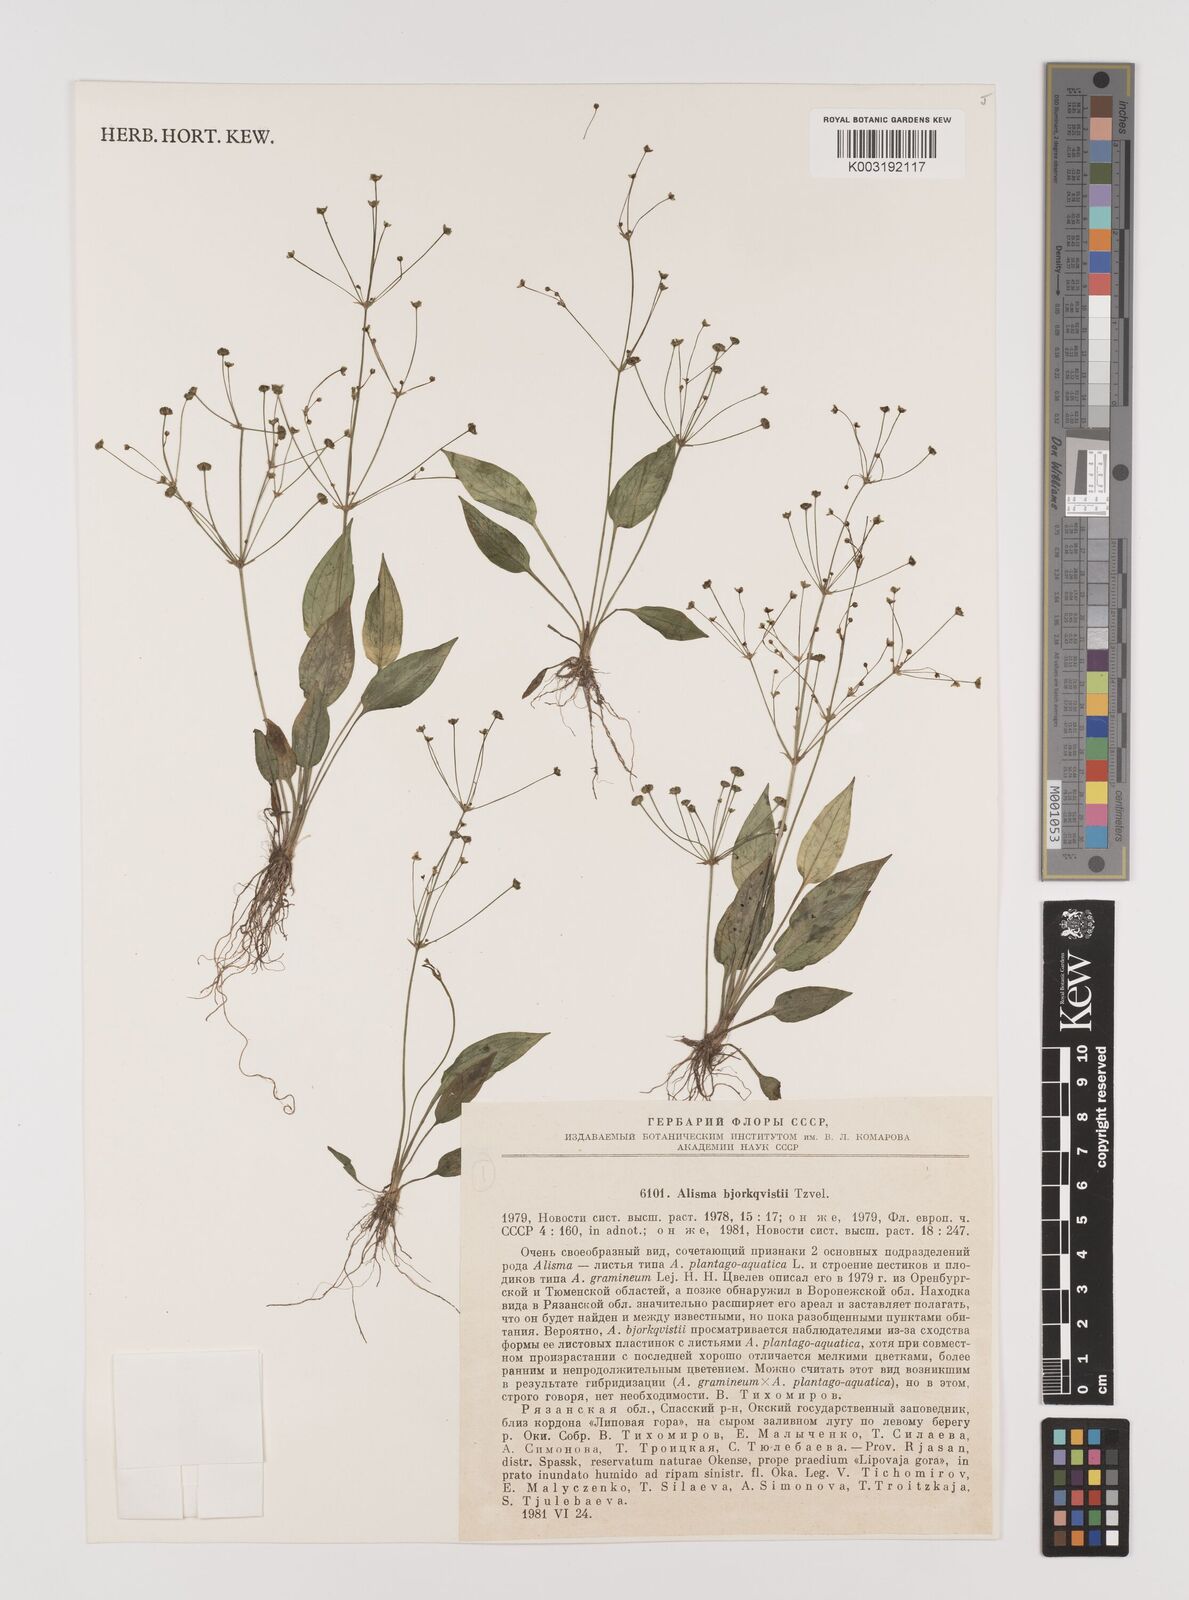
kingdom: Plantae
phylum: Tracheophyta
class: Liliopsida
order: Alismatales
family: Alismataceae
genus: Alisma
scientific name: Alisma plantago-aquatica
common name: Water-plantain
